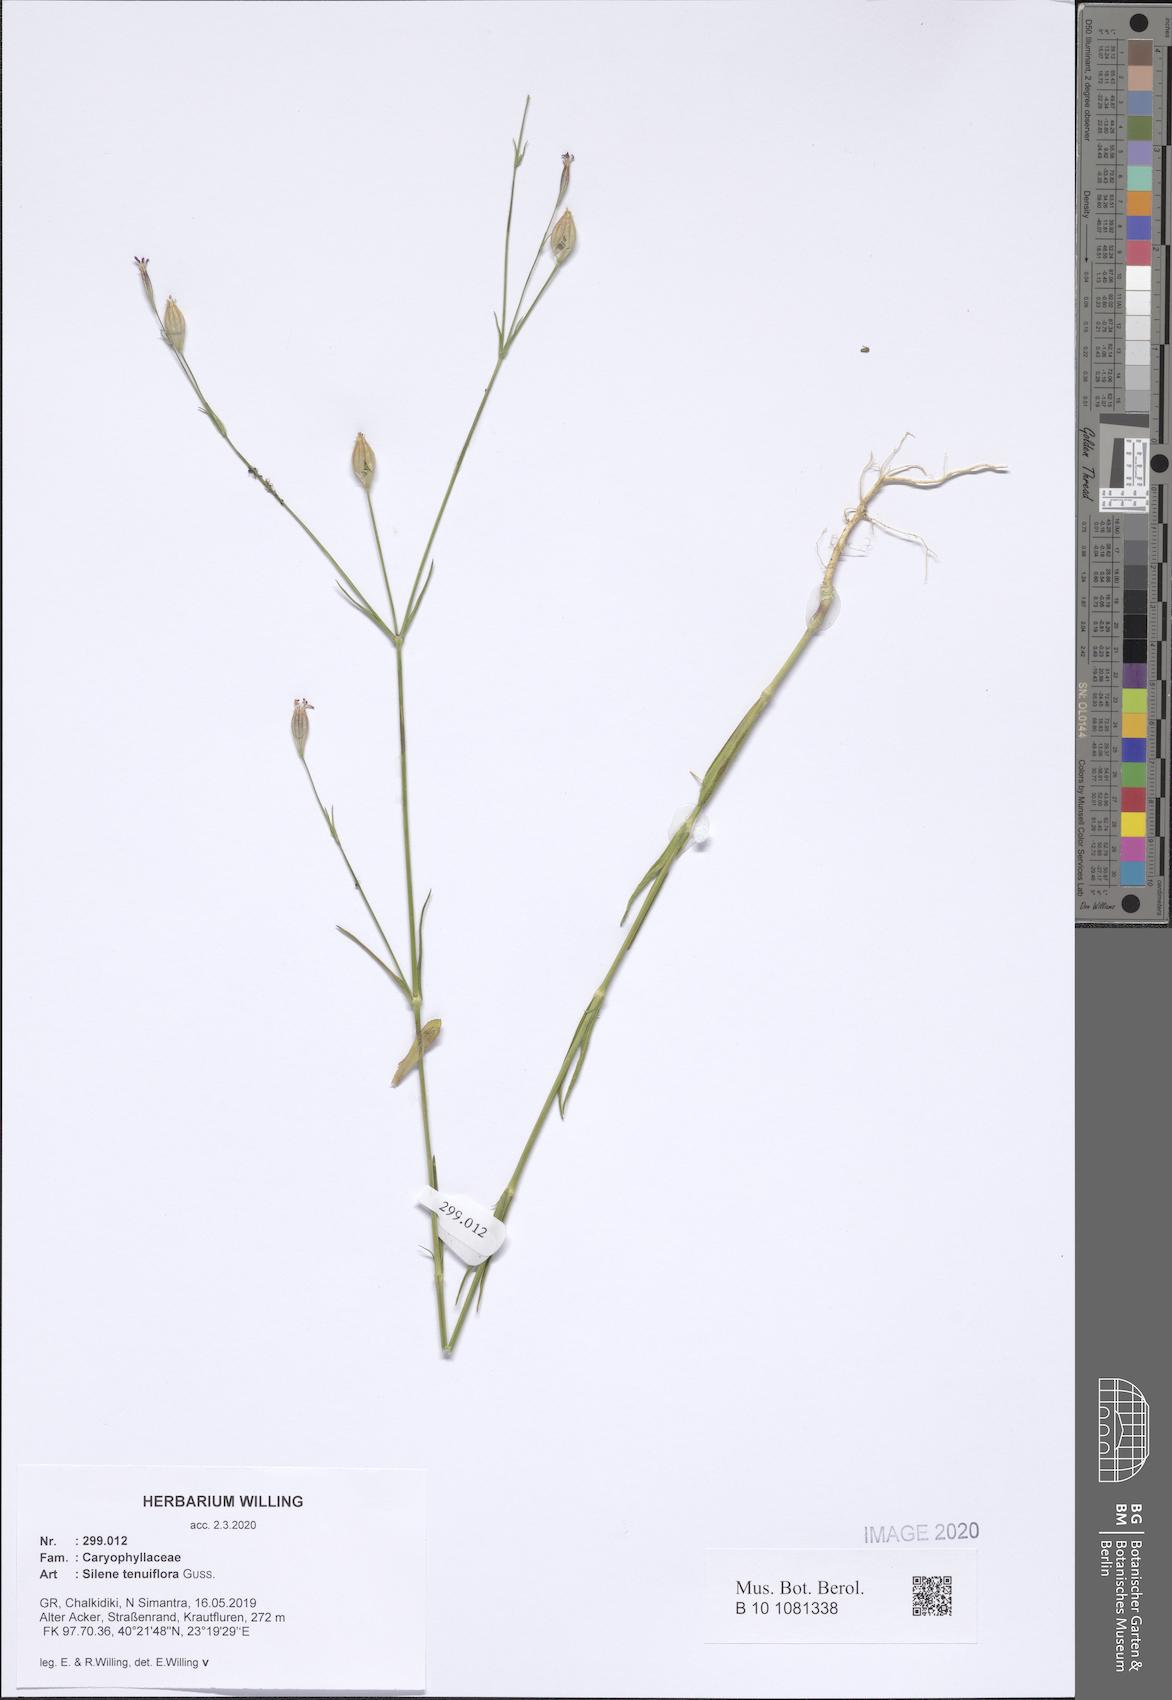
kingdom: Plantae
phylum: Tracheophyta
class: Magnoliopsida
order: Caryophyllales
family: Caryophyllaceae
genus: Silene
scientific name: Silene tenuiflora
